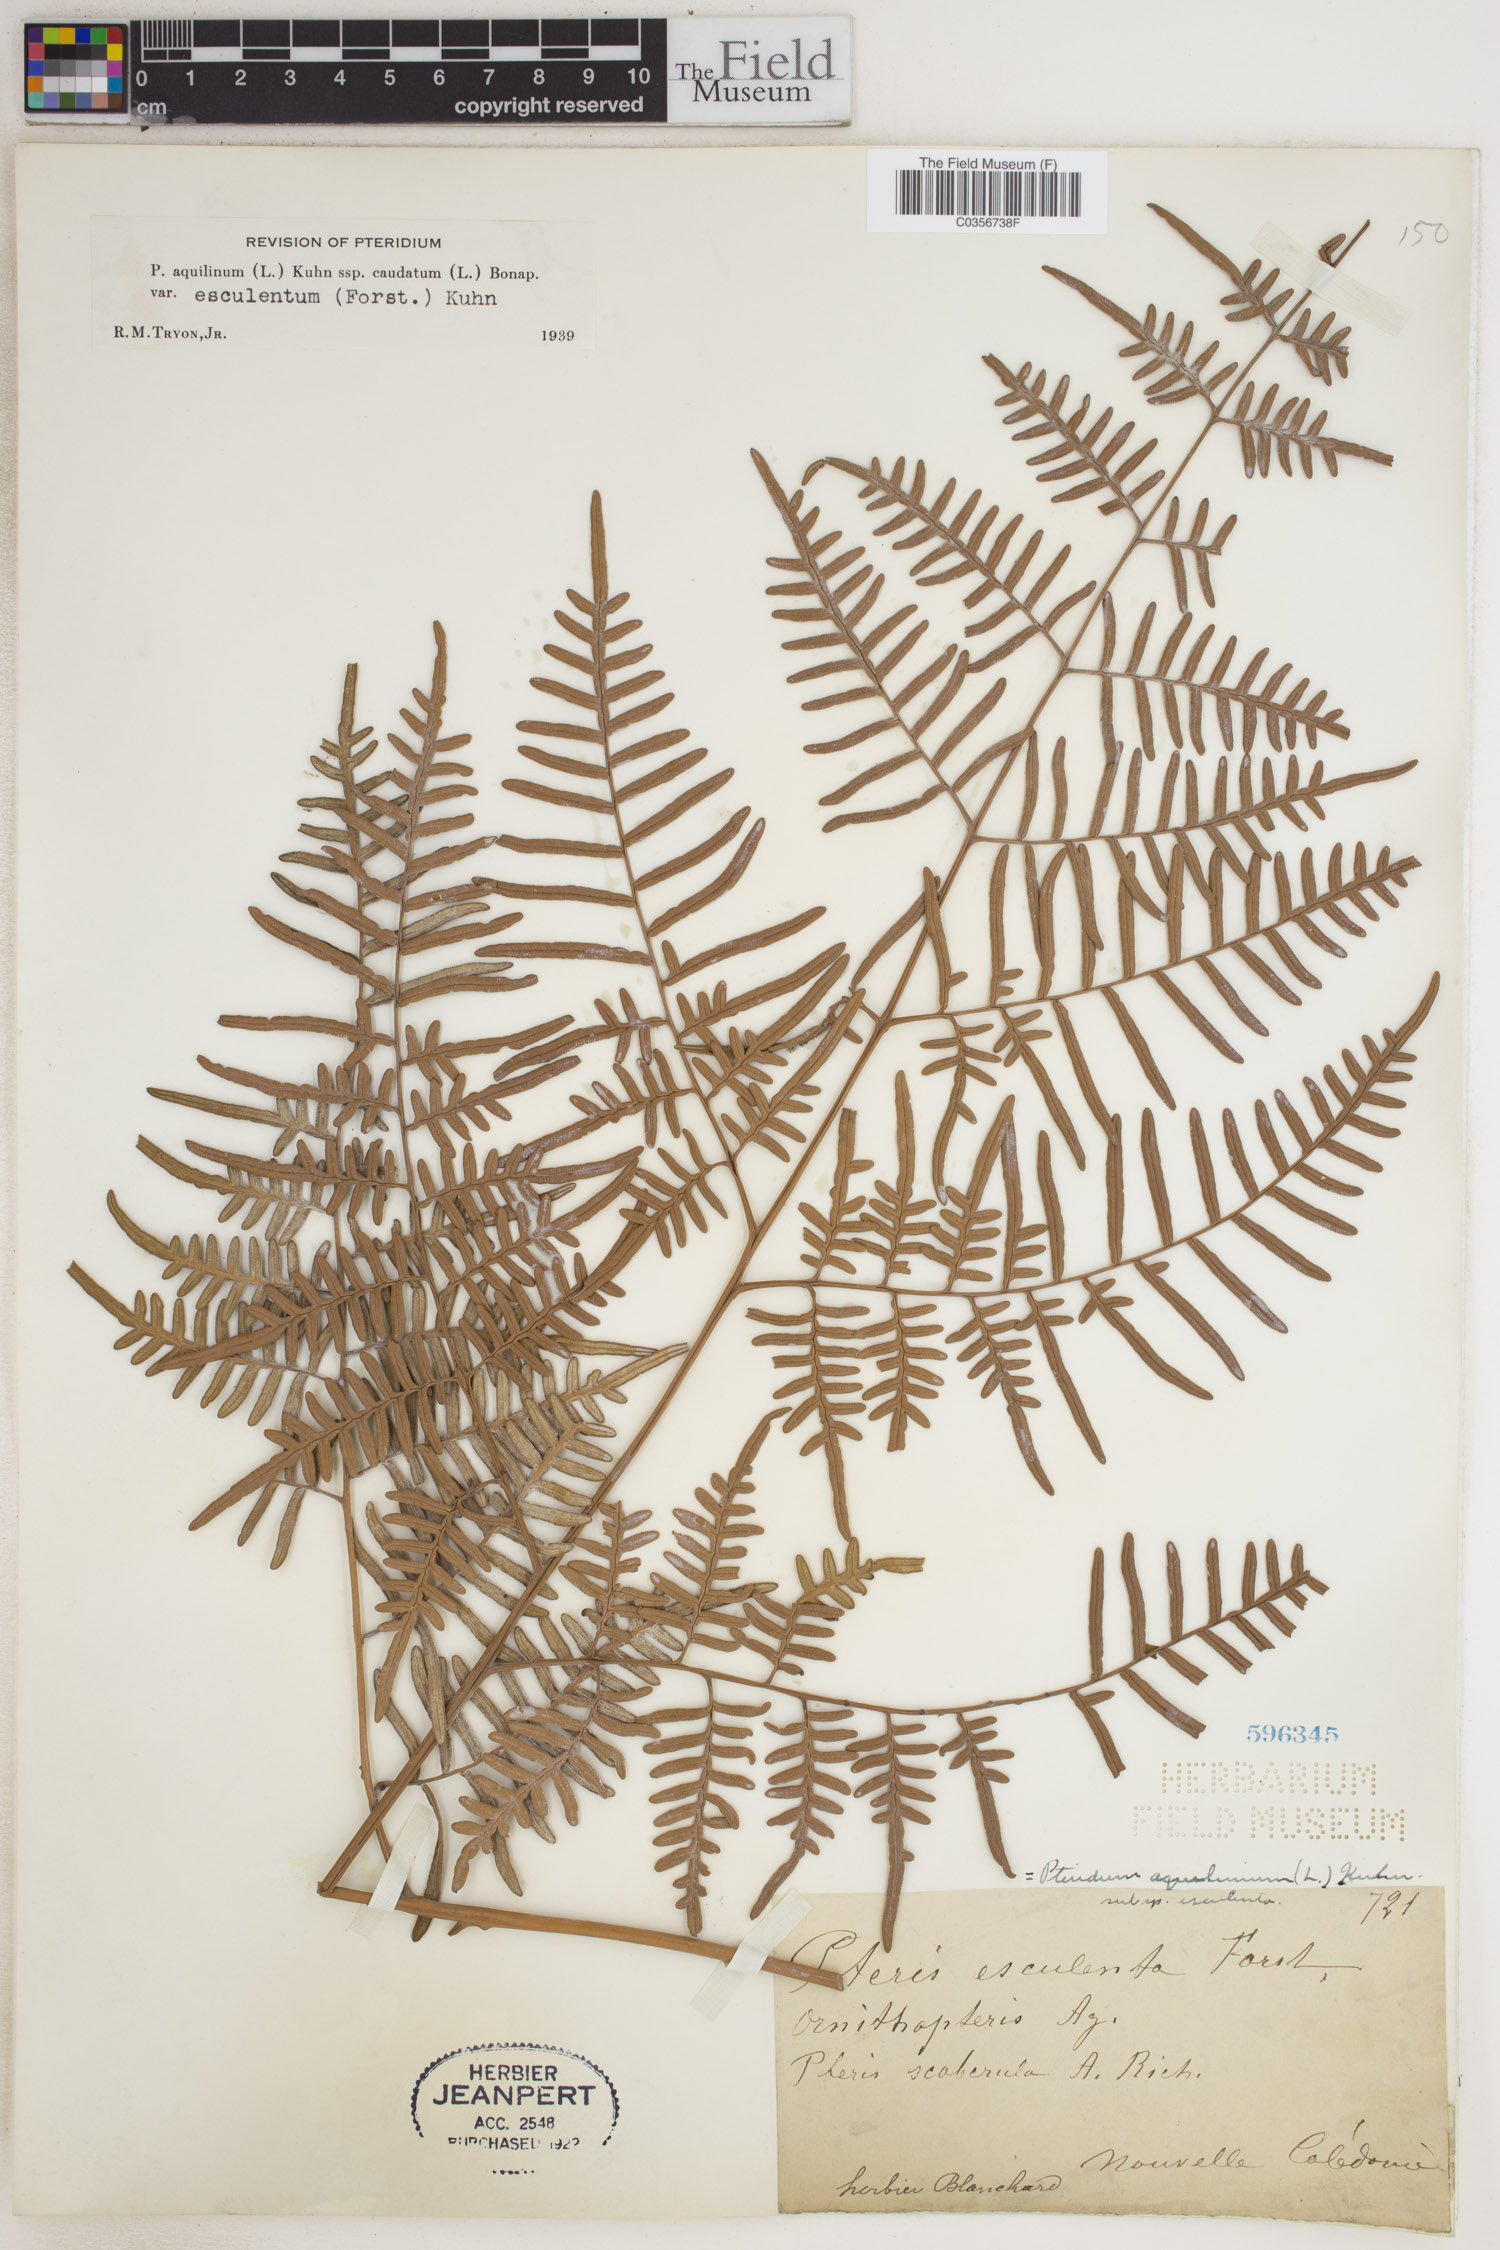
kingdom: Plantae
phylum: Tracheophyta
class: Polypodiopsida
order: Polypodiales
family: Dennstaedtiaceae
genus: Pteridium
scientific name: Pteridium aquilinum
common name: Bracken
